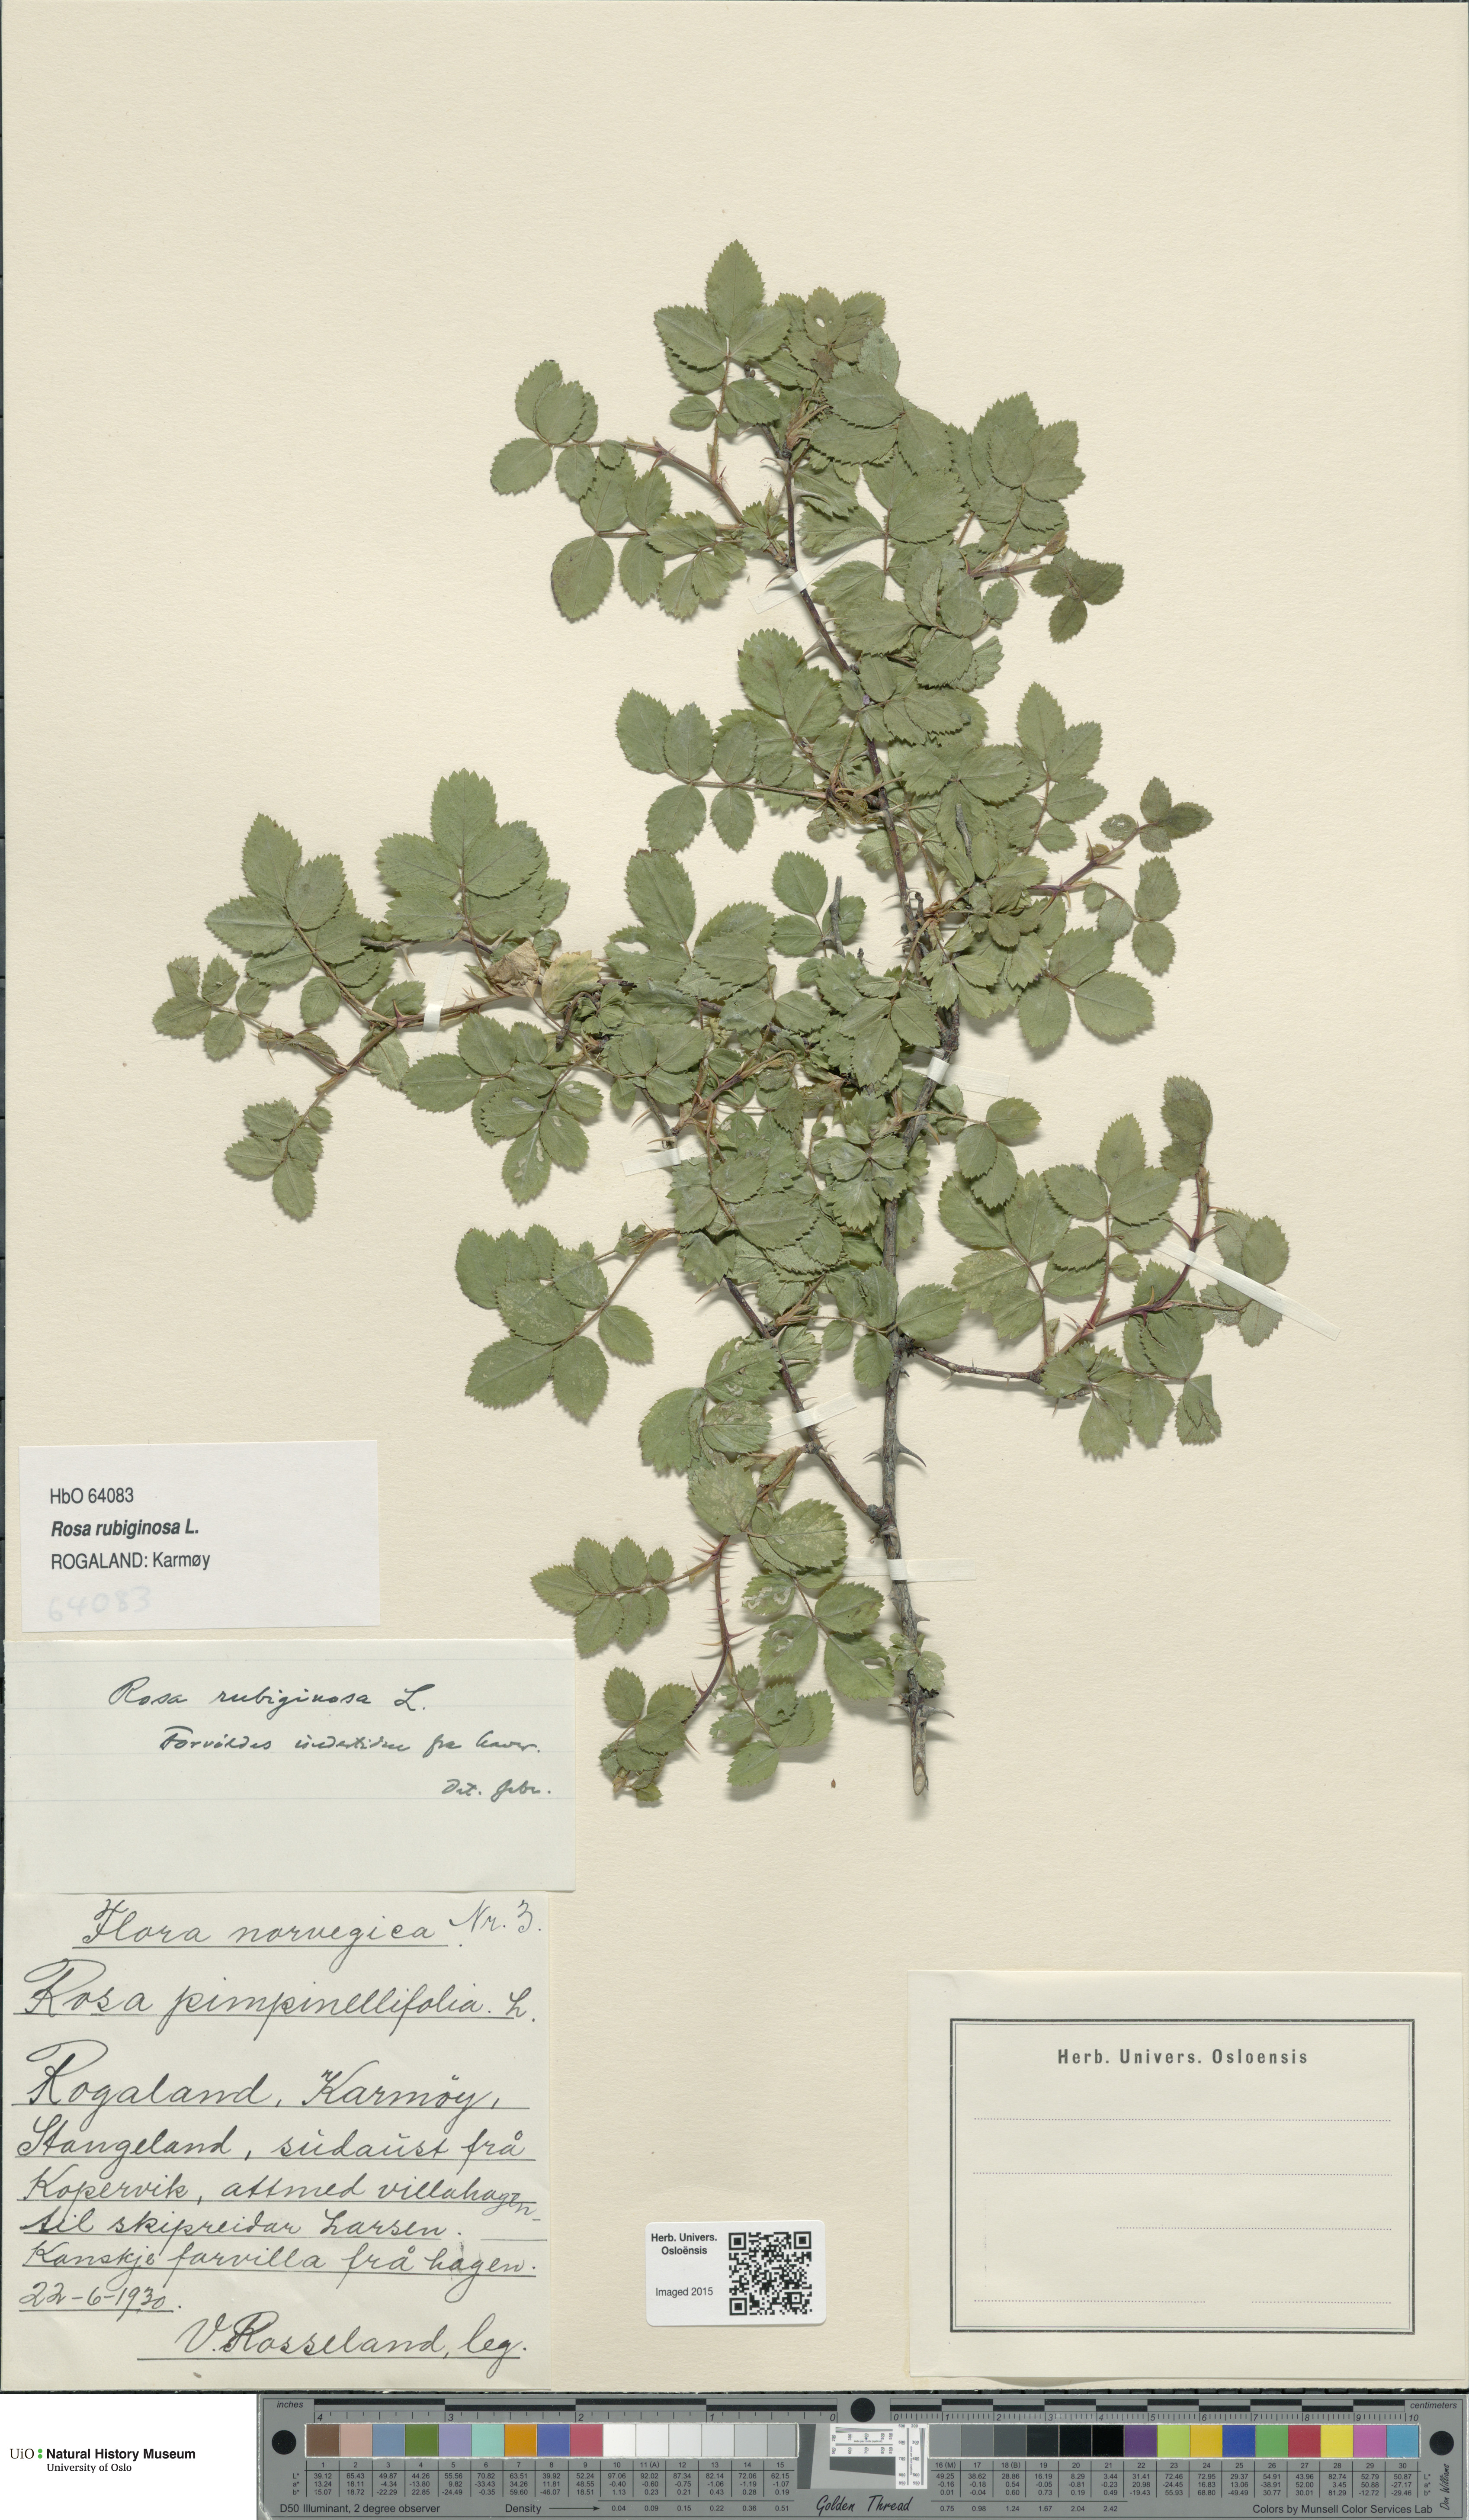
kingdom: Plantae
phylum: Tracheophyta
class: Magnoliopsida
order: Rosales
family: Rosaceae
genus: Rosa
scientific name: Rosa rubiginosa
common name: Sweet-briar
